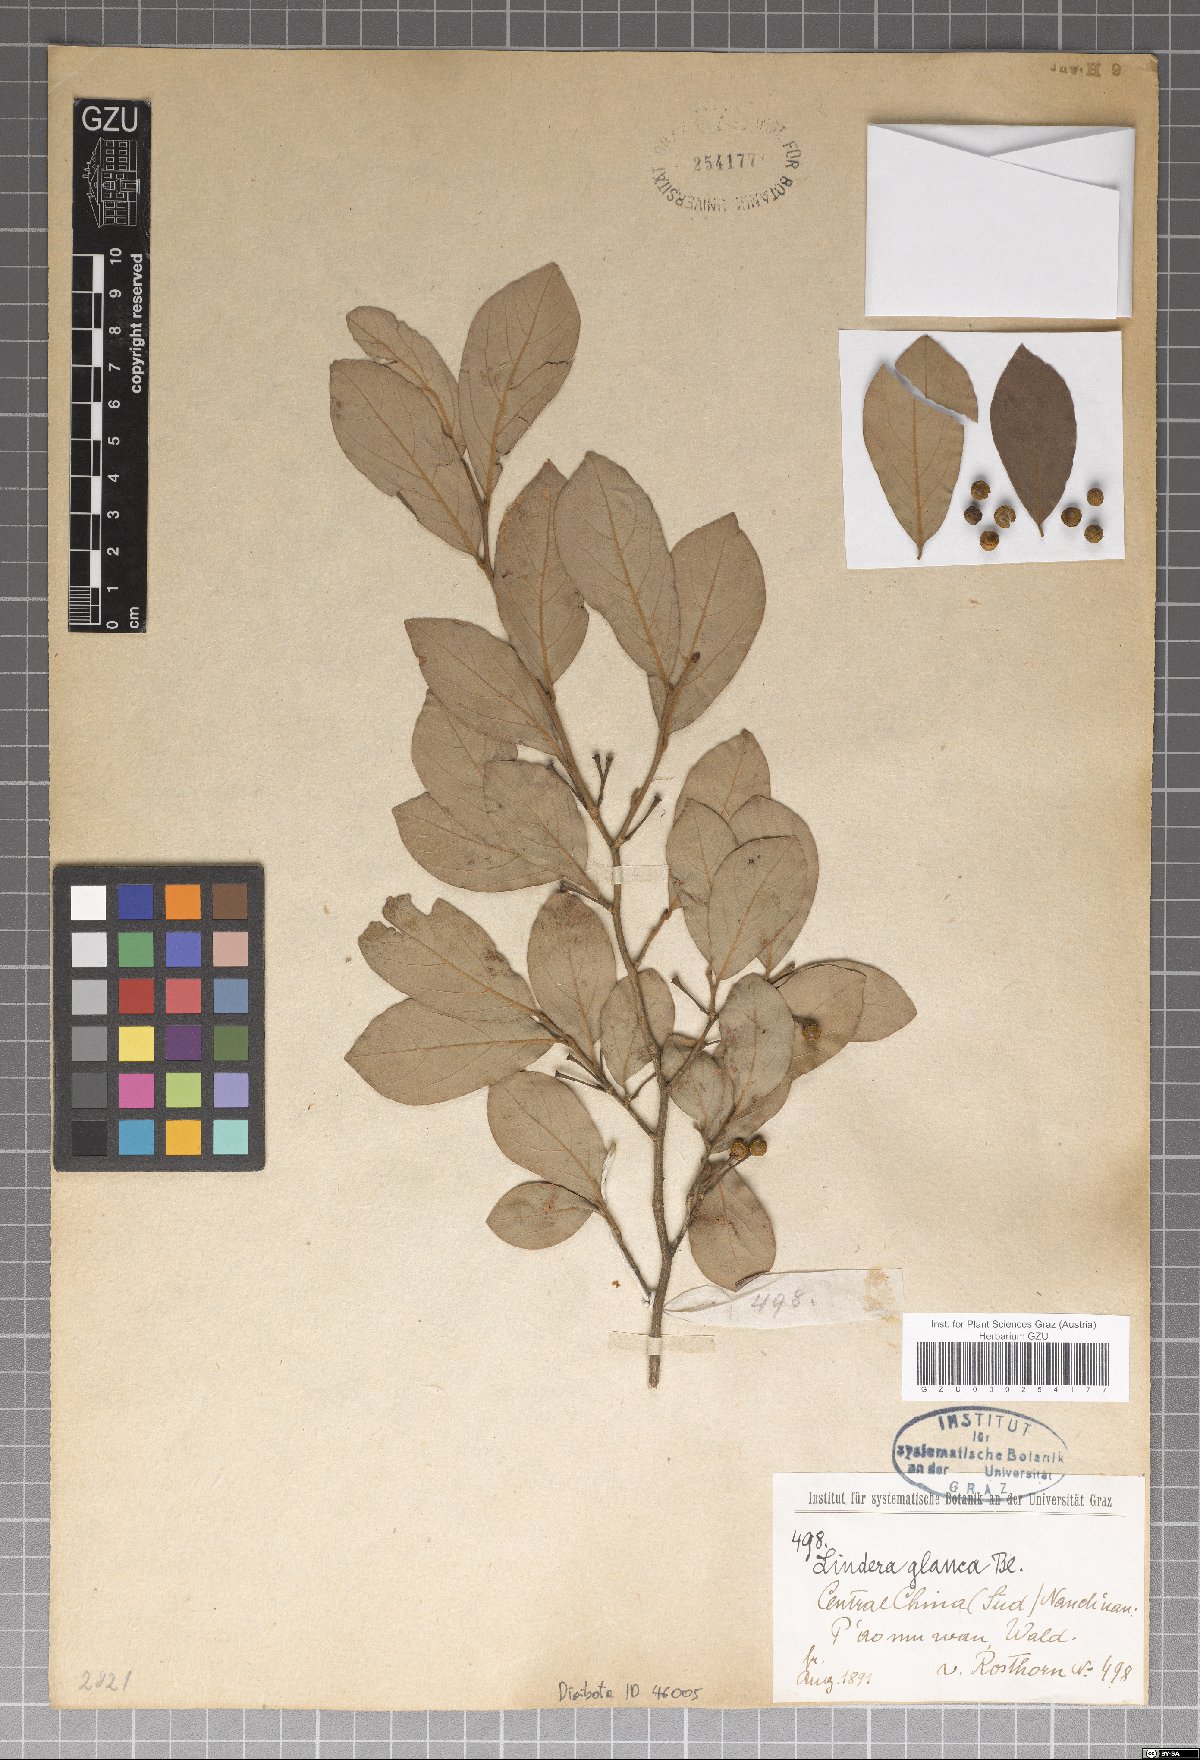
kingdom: Plantae
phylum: Tracheophyta
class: Magnoliopsida
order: Laurales
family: Lauraceae
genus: Lindera
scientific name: Lindera glauca
